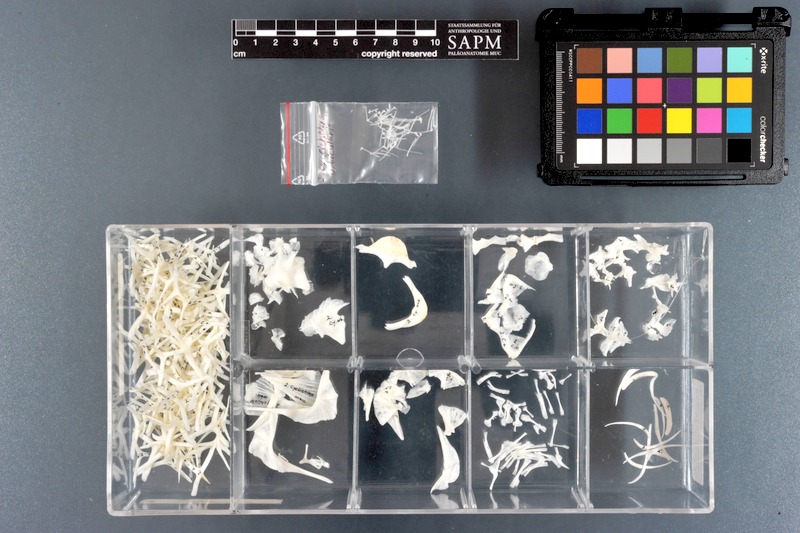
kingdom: Animalia
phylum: Chordata
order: Tetraodontiformes
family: Diodontidae
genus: Cyclichthys
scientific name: Cyclichthys orbicularis
